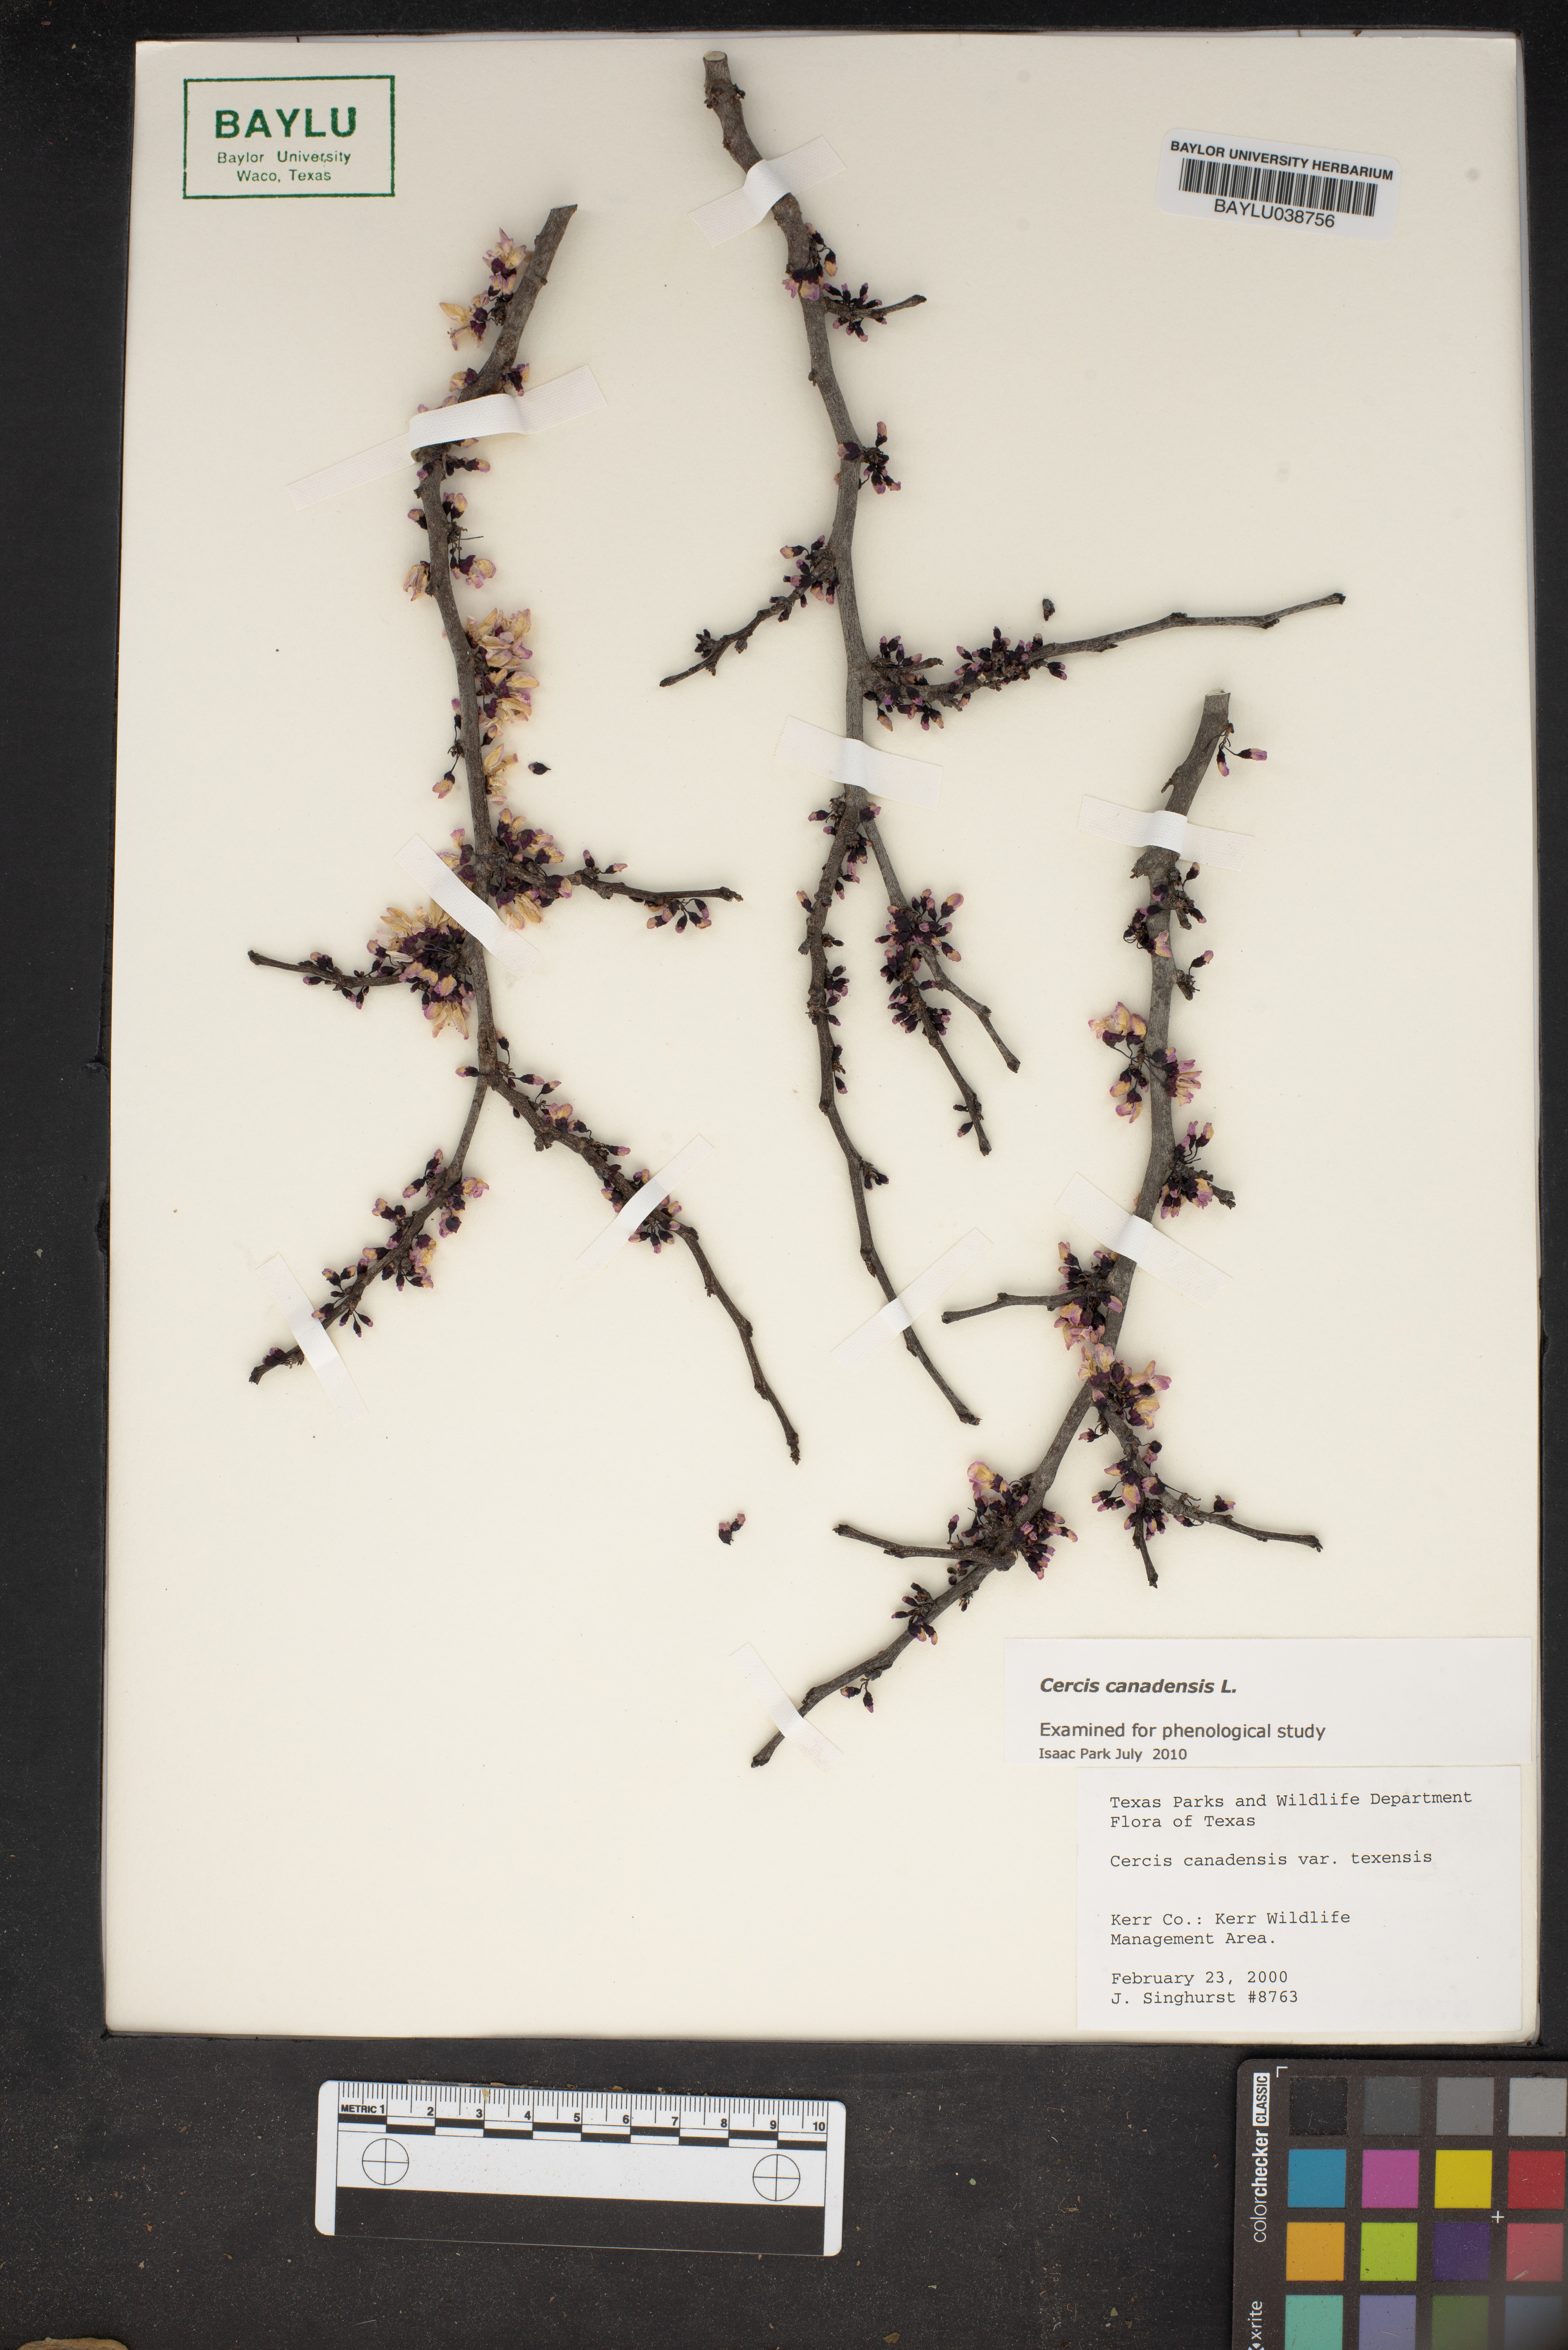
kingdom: Plantae
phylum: Tracheophyta
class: Magnoliopsida
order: Fabales
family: Fabaceae
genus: Cercis
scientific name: Cercis canadensis
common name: Eastern redbud
